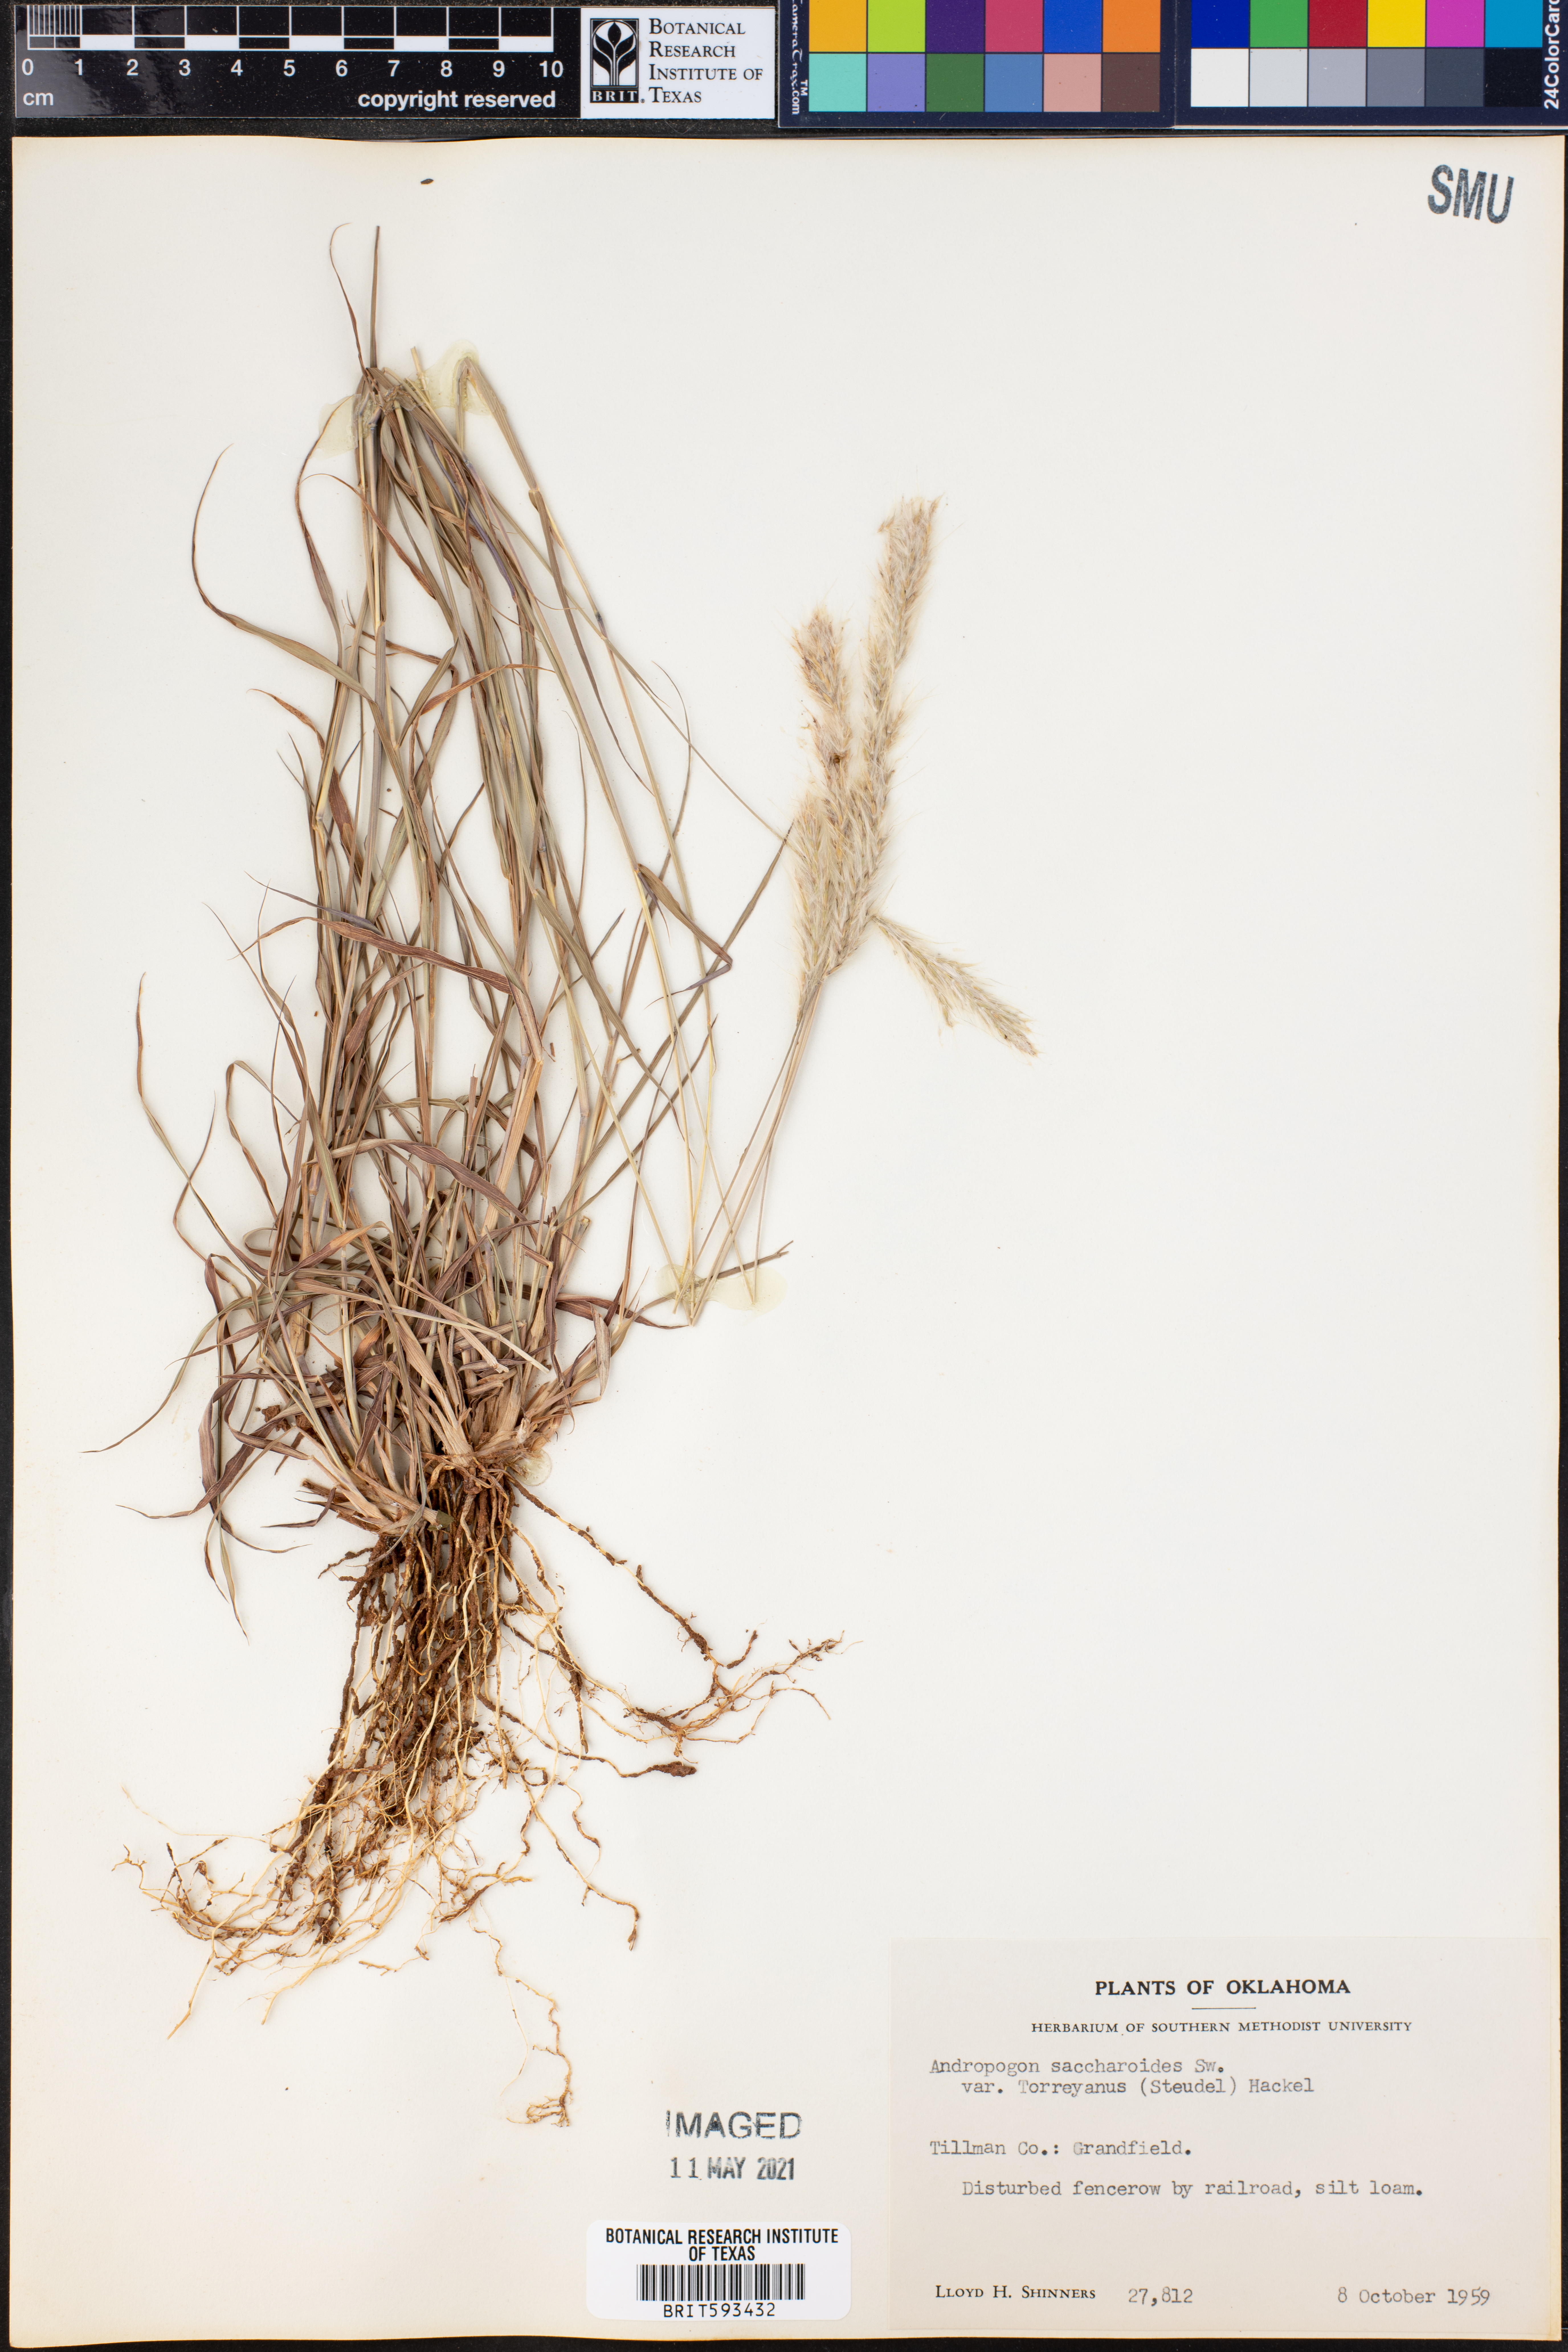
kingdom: Plantae
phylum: Tracheophyta
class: Liliopsida
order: Poales
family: Poaceae
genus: Bothriochloa
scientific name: Bothriochloa torreyana
